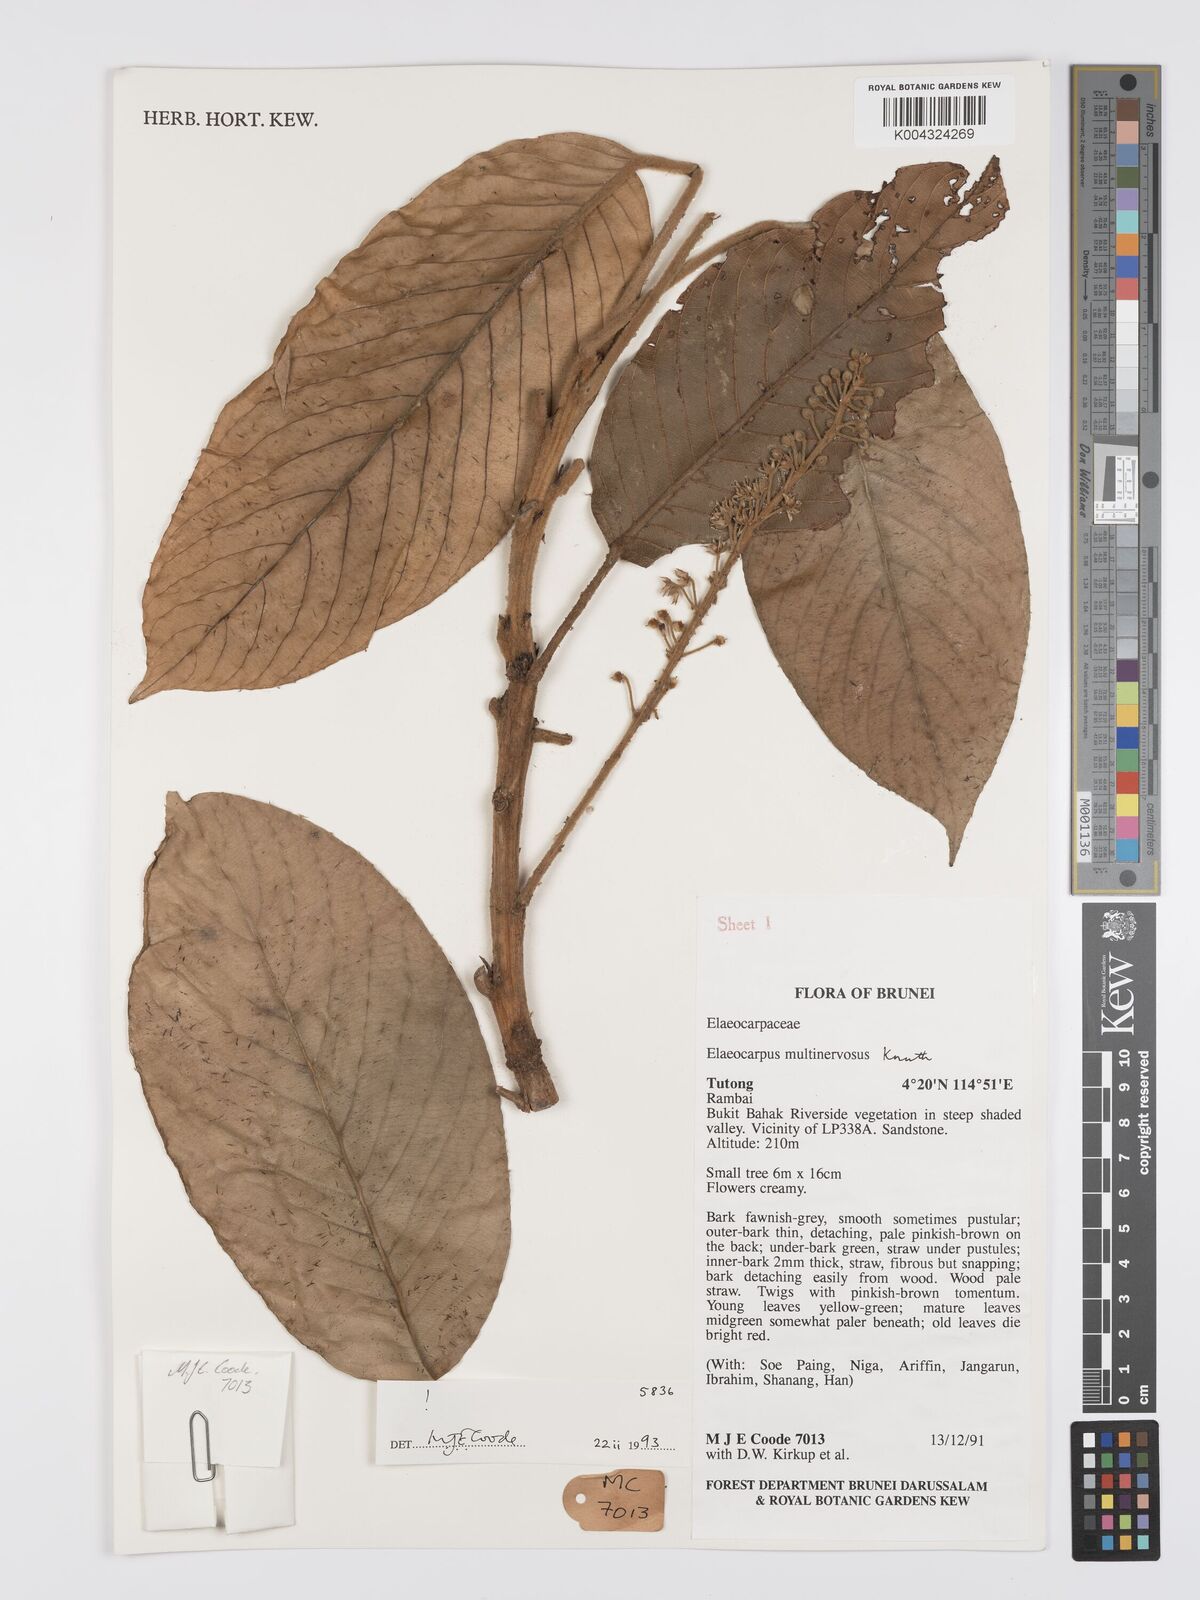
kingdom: Plantae
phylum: Tracheophyta
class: Magnoliopsida
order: Oxalidales
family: Elaeocarpaceae
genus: Elaeocarpus
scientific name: Elaeocarpus multinervosus
